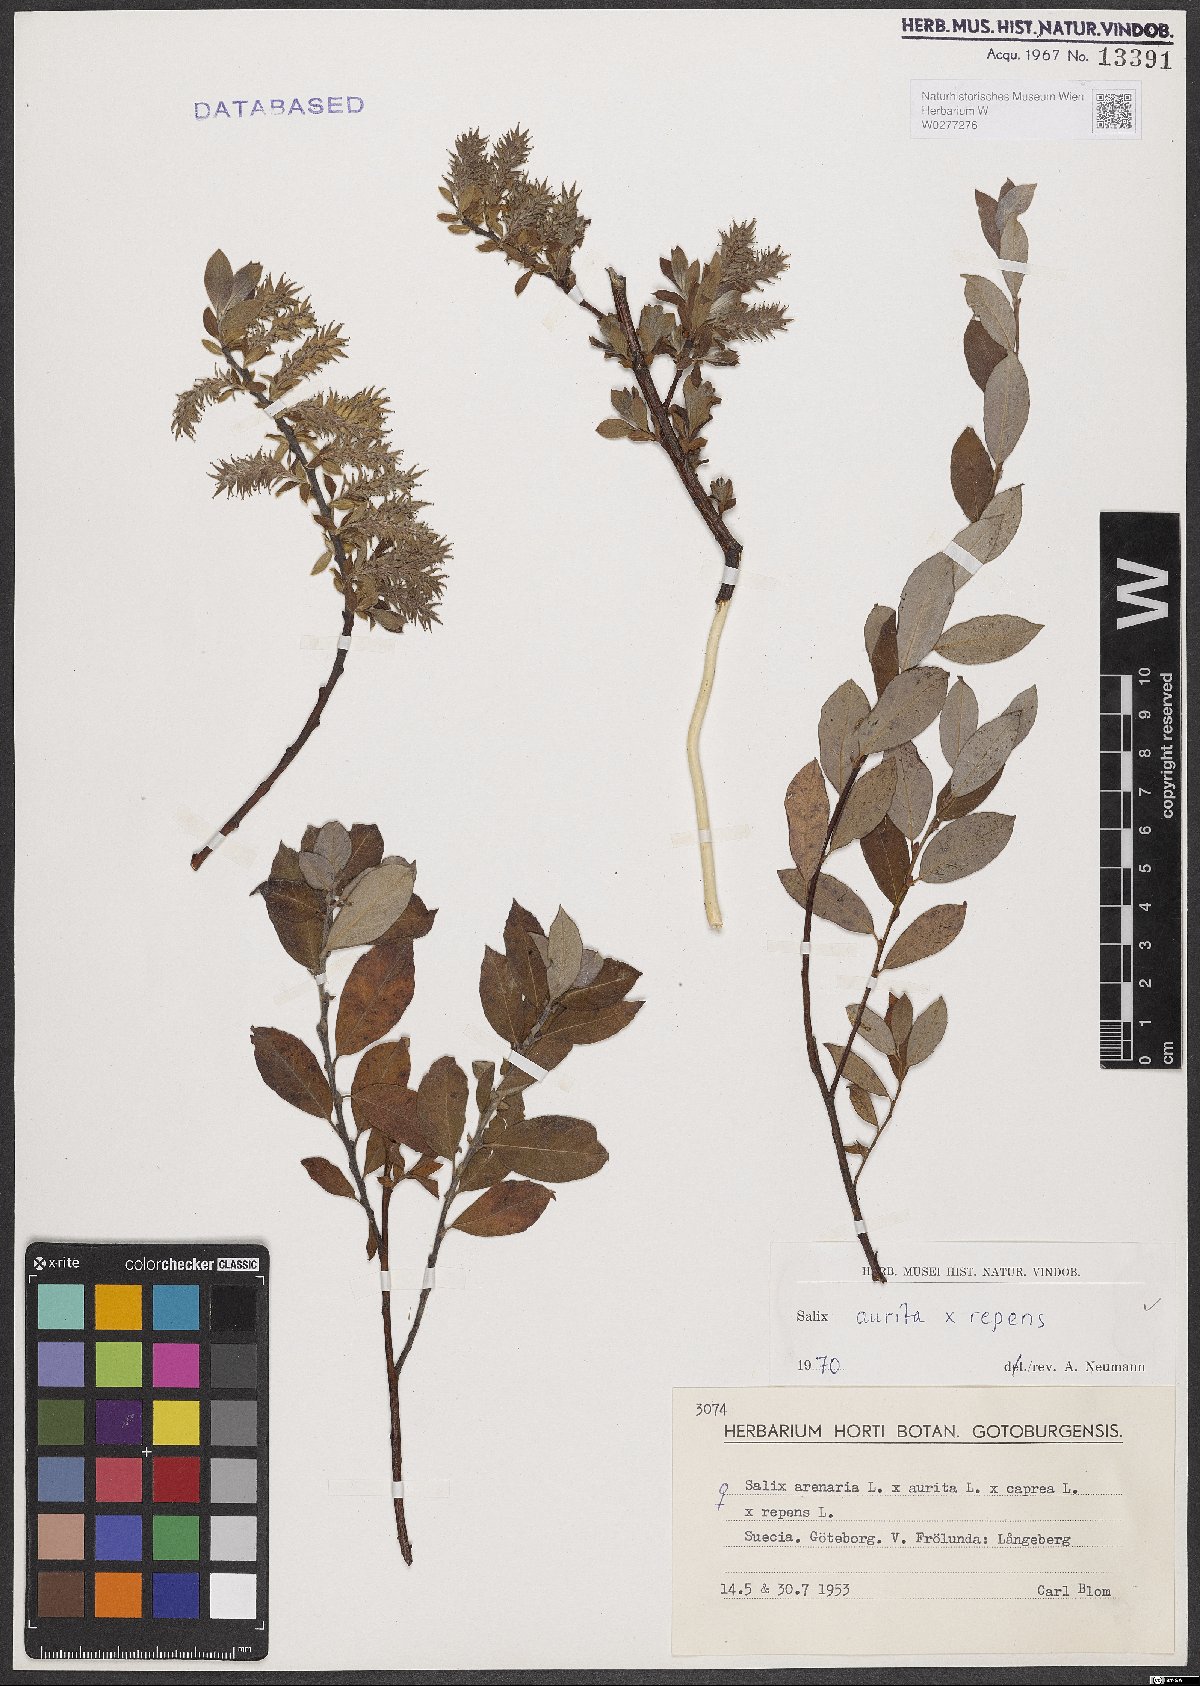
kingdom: Plantae
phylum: Tracheophyta
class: Magnoliopsida
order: Malpighiales
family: Salicaceae
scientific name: Salicaceae
